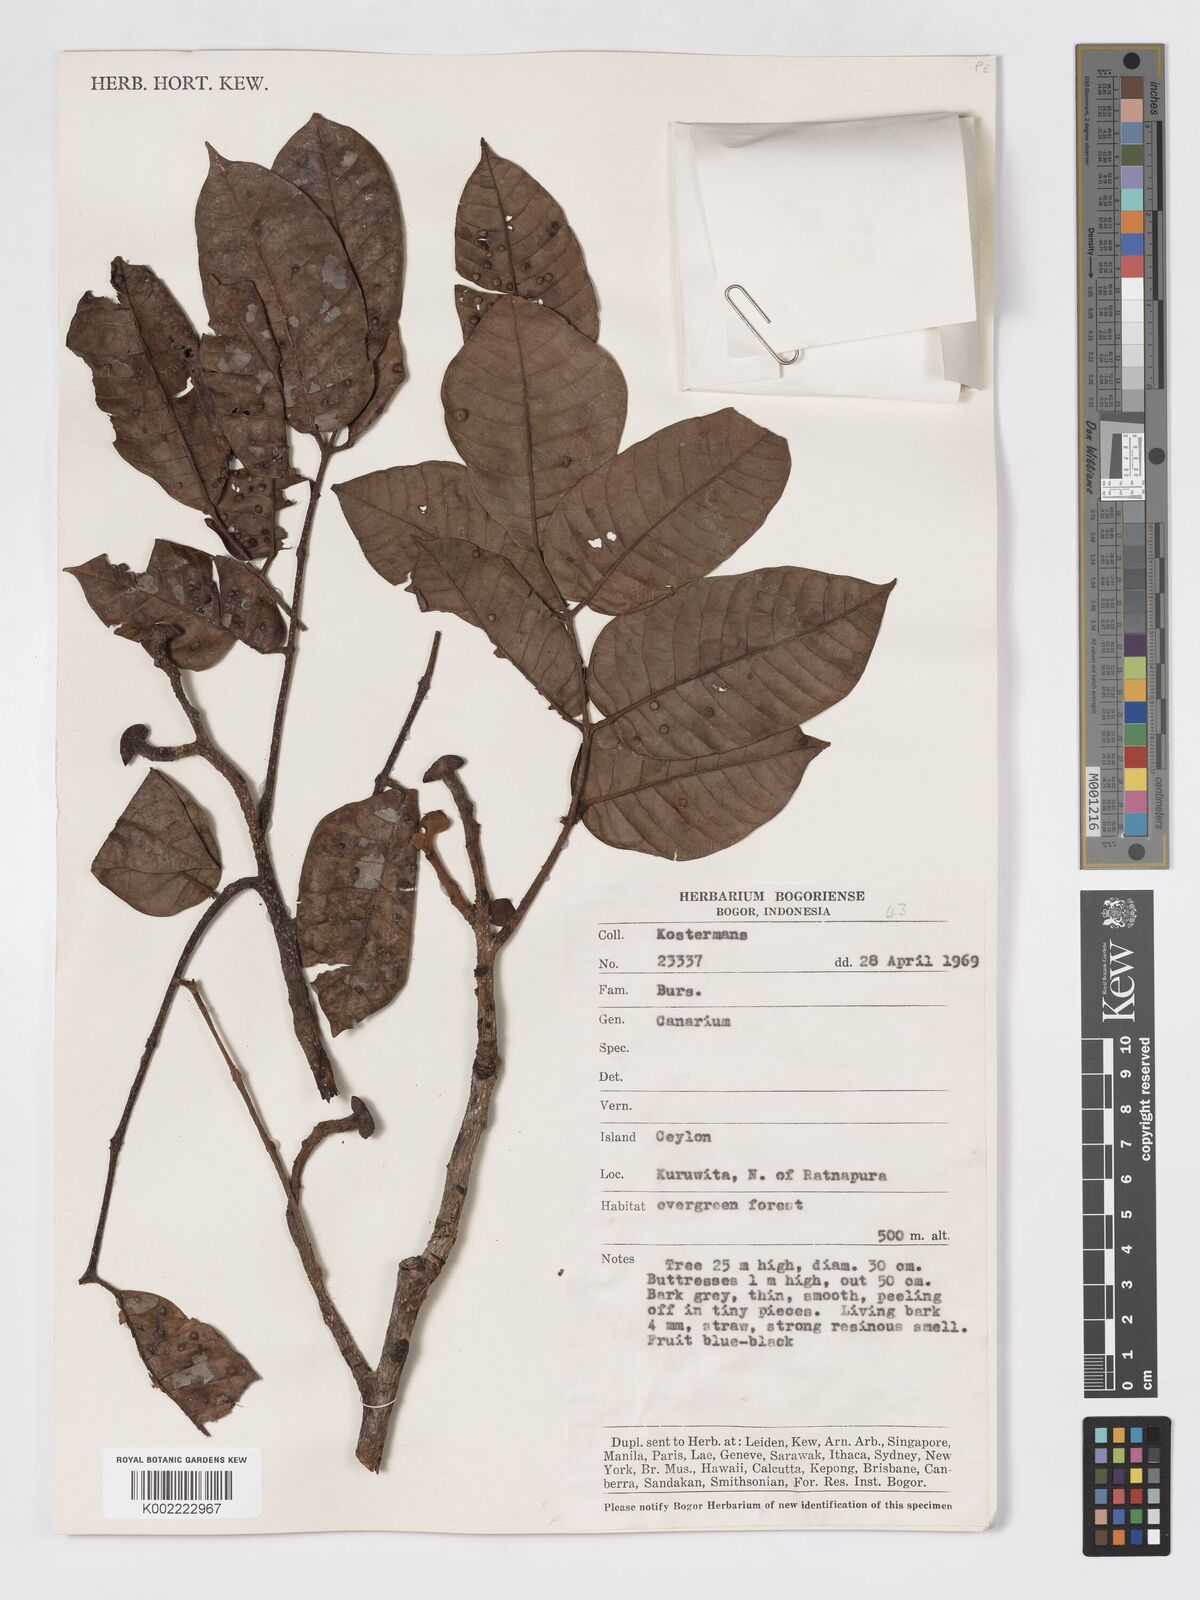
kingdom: Plantae
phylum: Tracheophyta
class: Magnoliopsida
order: Sapindales
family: Burseraceae
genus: Canarium
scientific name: Canarium
